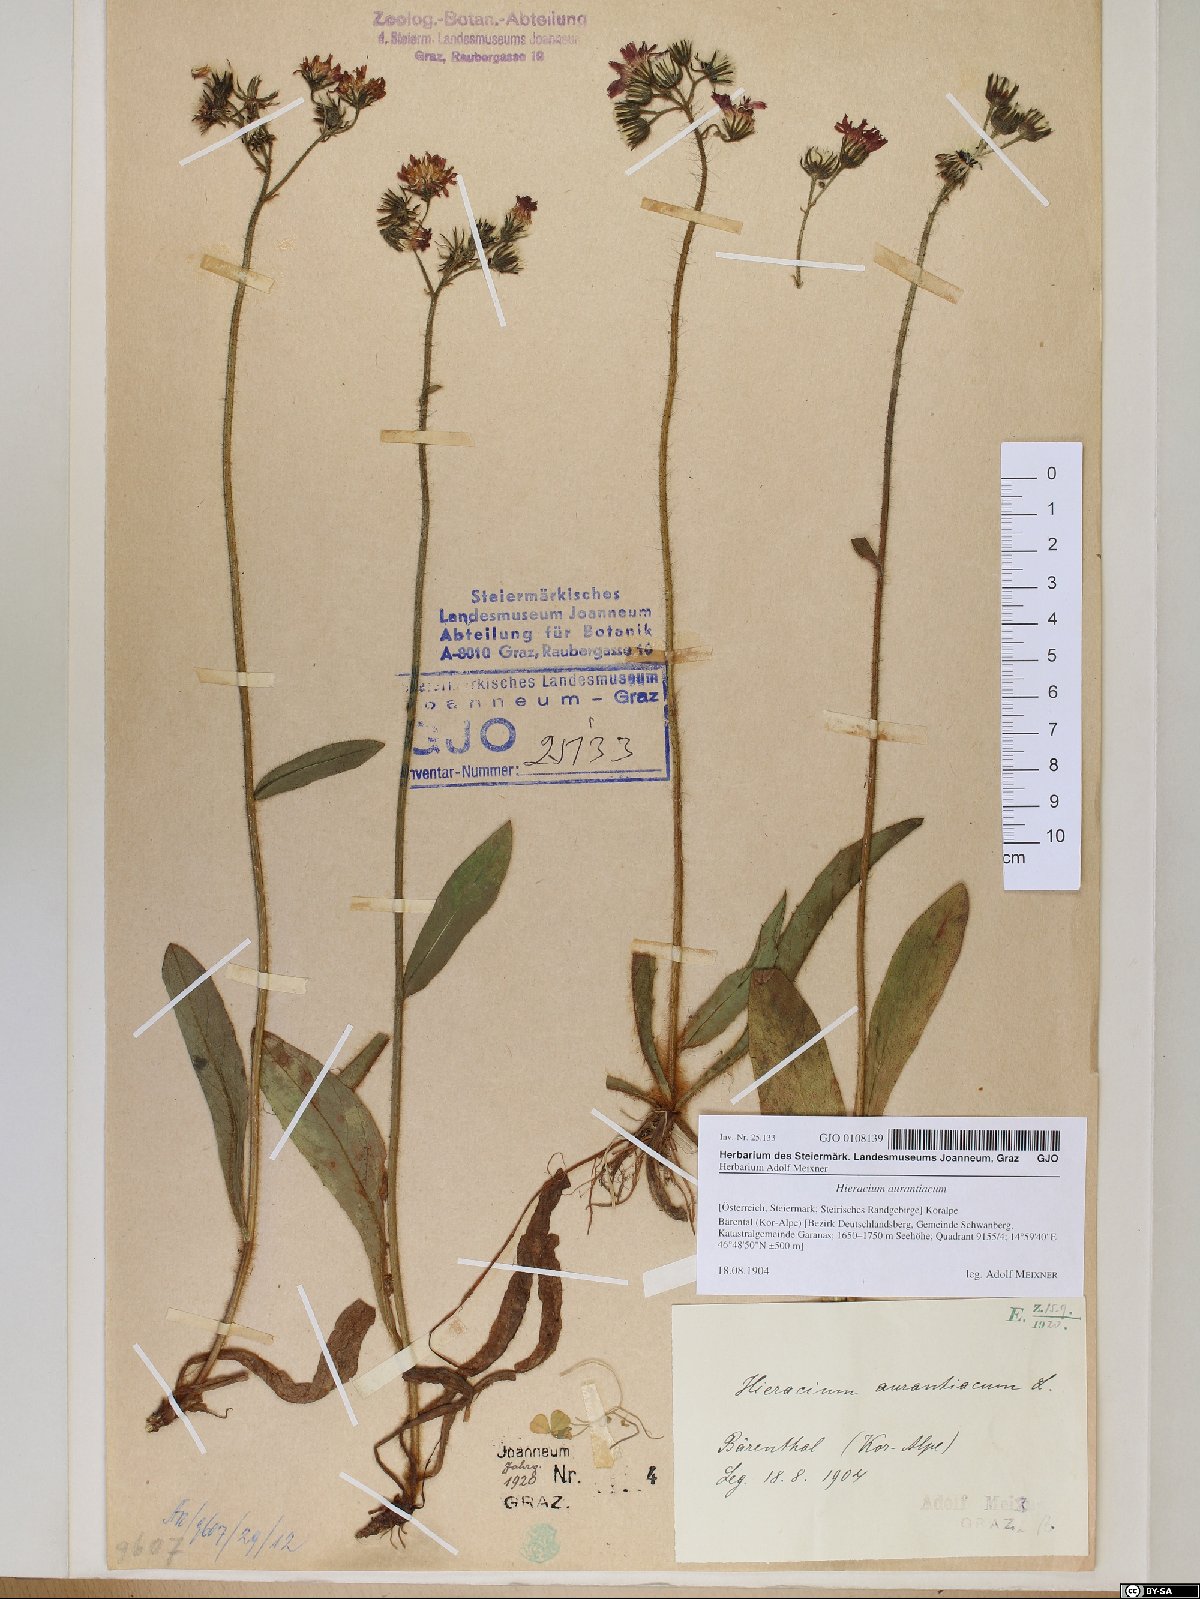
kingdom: Plantae
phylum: Tracheophyta
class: Magnoliopsida
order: Asterales
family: Asteraceae
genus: Pilosella
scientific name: Pilosella aurantiaca
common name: Fox-and-cubs
